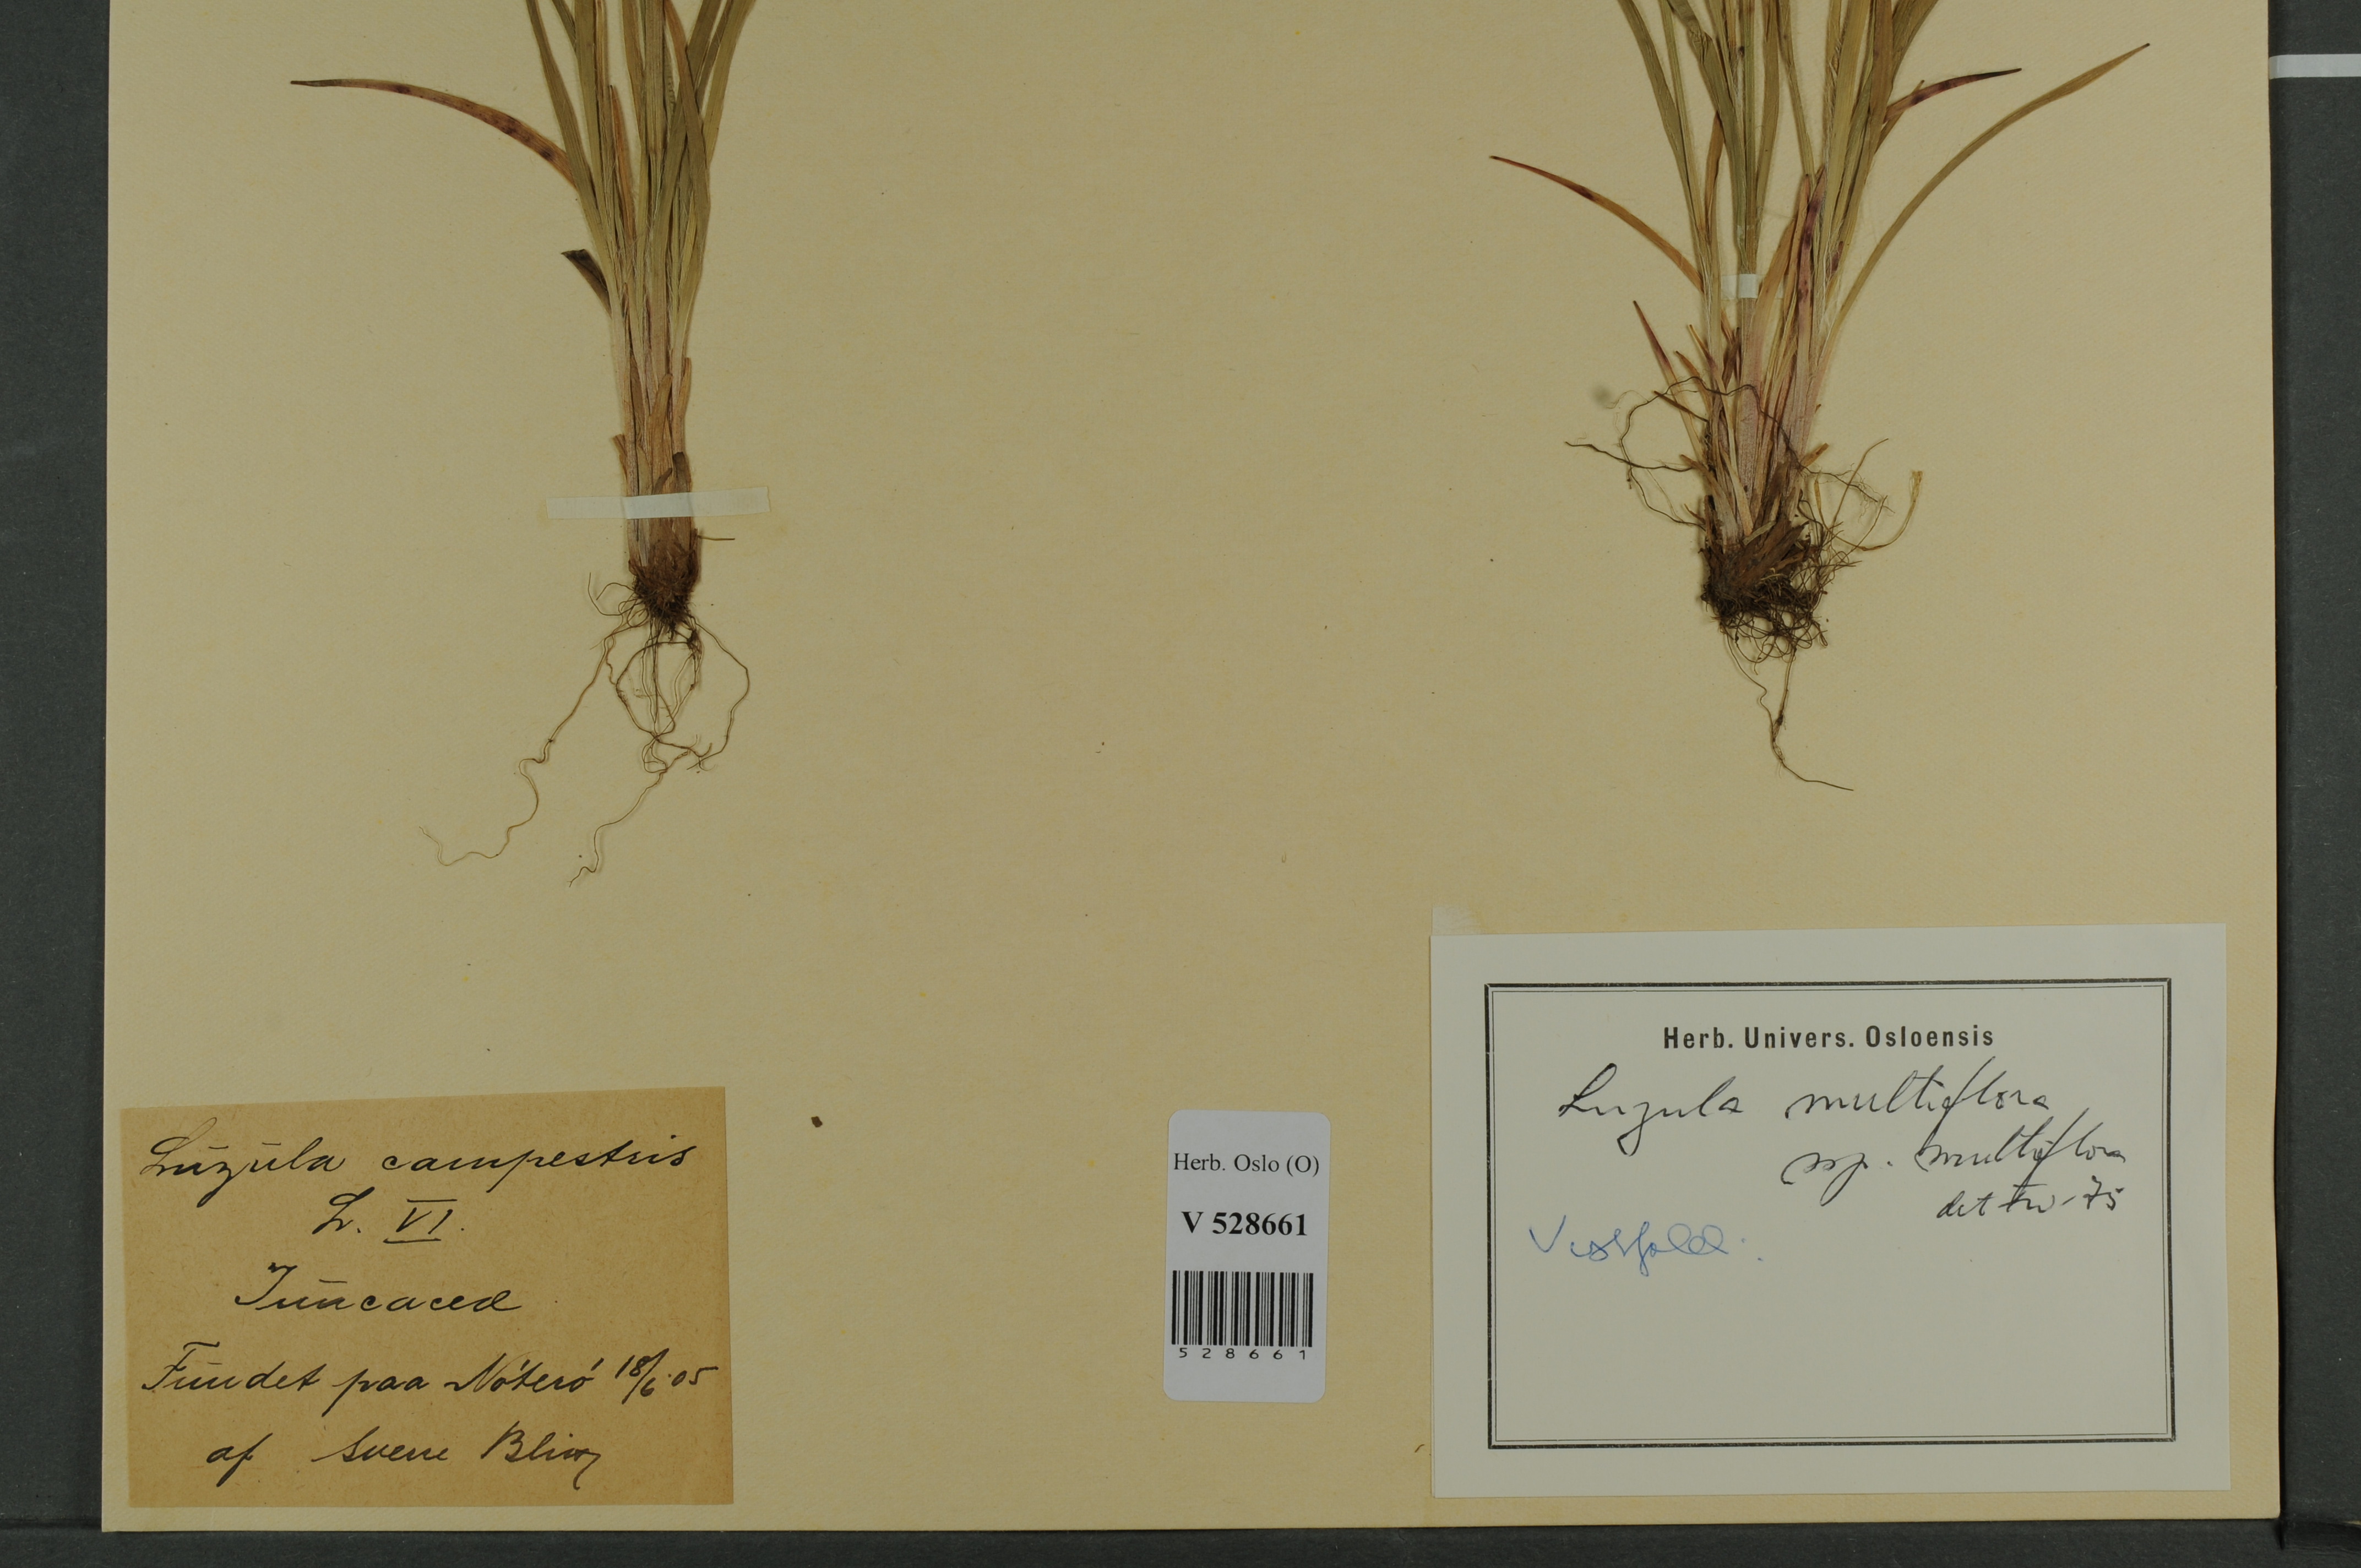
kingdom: Plantae
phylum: Tracheophyta
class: Liliopsida
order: Poales
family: Juncaceae
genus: Luzula
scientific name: Luzula multiflora
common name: Heath wood-rush
